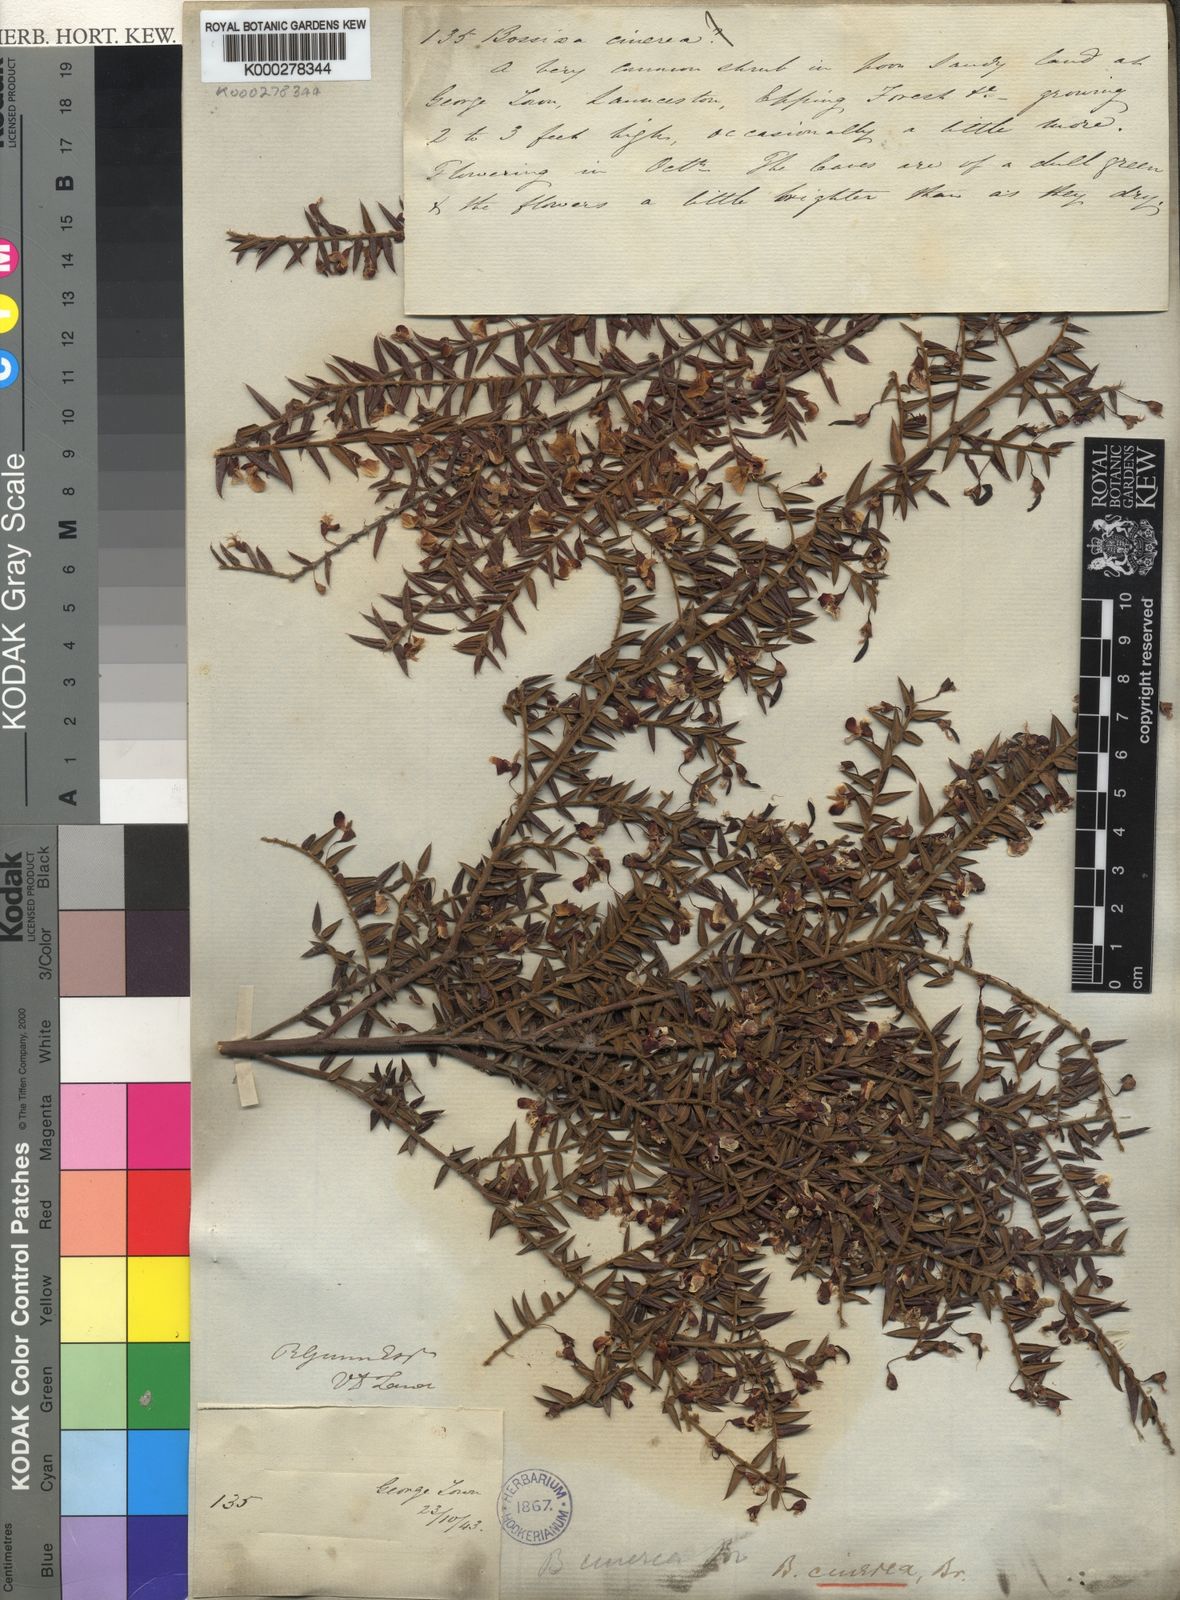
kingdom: Plantae
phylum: Tracheophyta
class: Magnoliopsida
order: Fabales
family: Fabaceae
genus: Bossiaea
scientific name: Bossiaea cinerea
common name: Showy bossiaea
